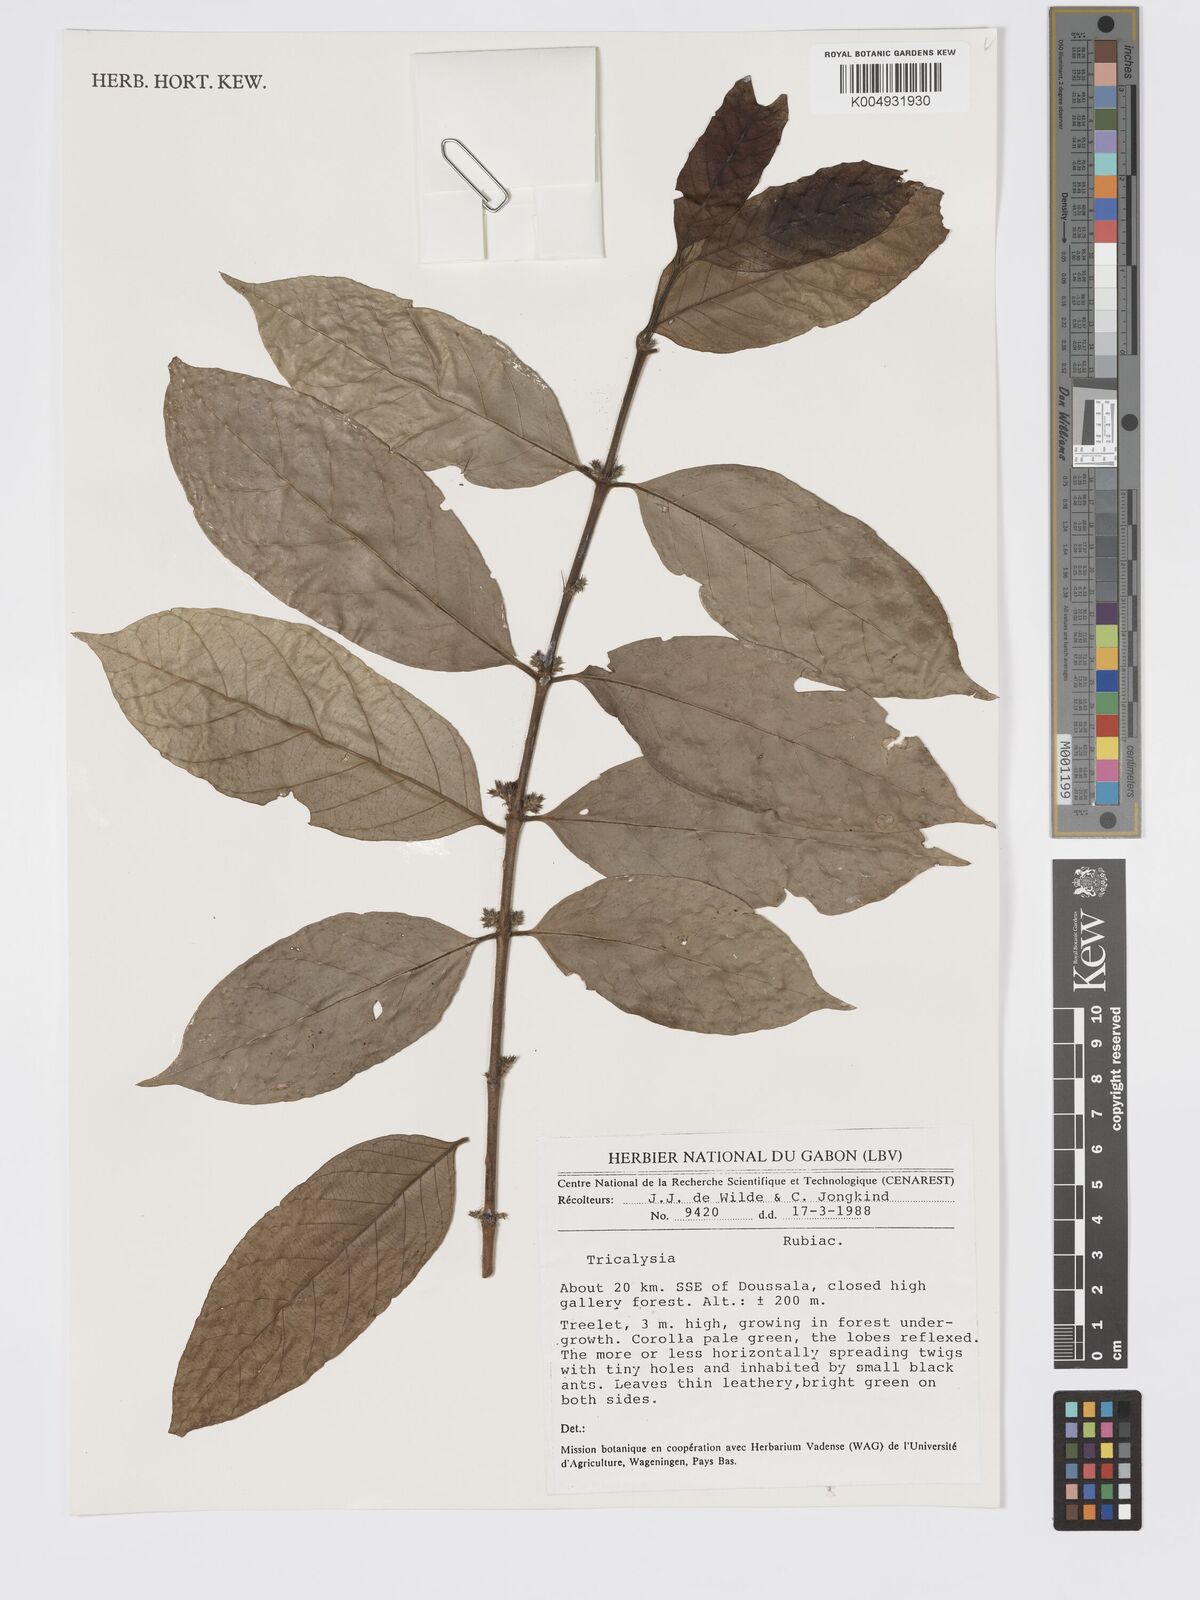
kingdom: Plantae
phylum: Tracheophyta
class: Magnoliopsida
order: Gentianales
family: Rubiaceae
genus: Tricalysia
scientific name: Tricalysia
